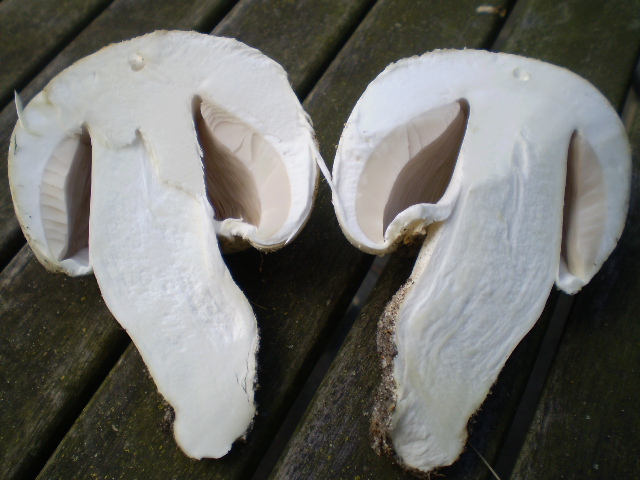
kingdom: Fungi
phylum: Basidiomycota
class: Agaricomycetes
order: Agaricales
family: Agaricaceae
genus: Agaricus
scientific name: Agaricus arvensis
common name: ager-champignon
